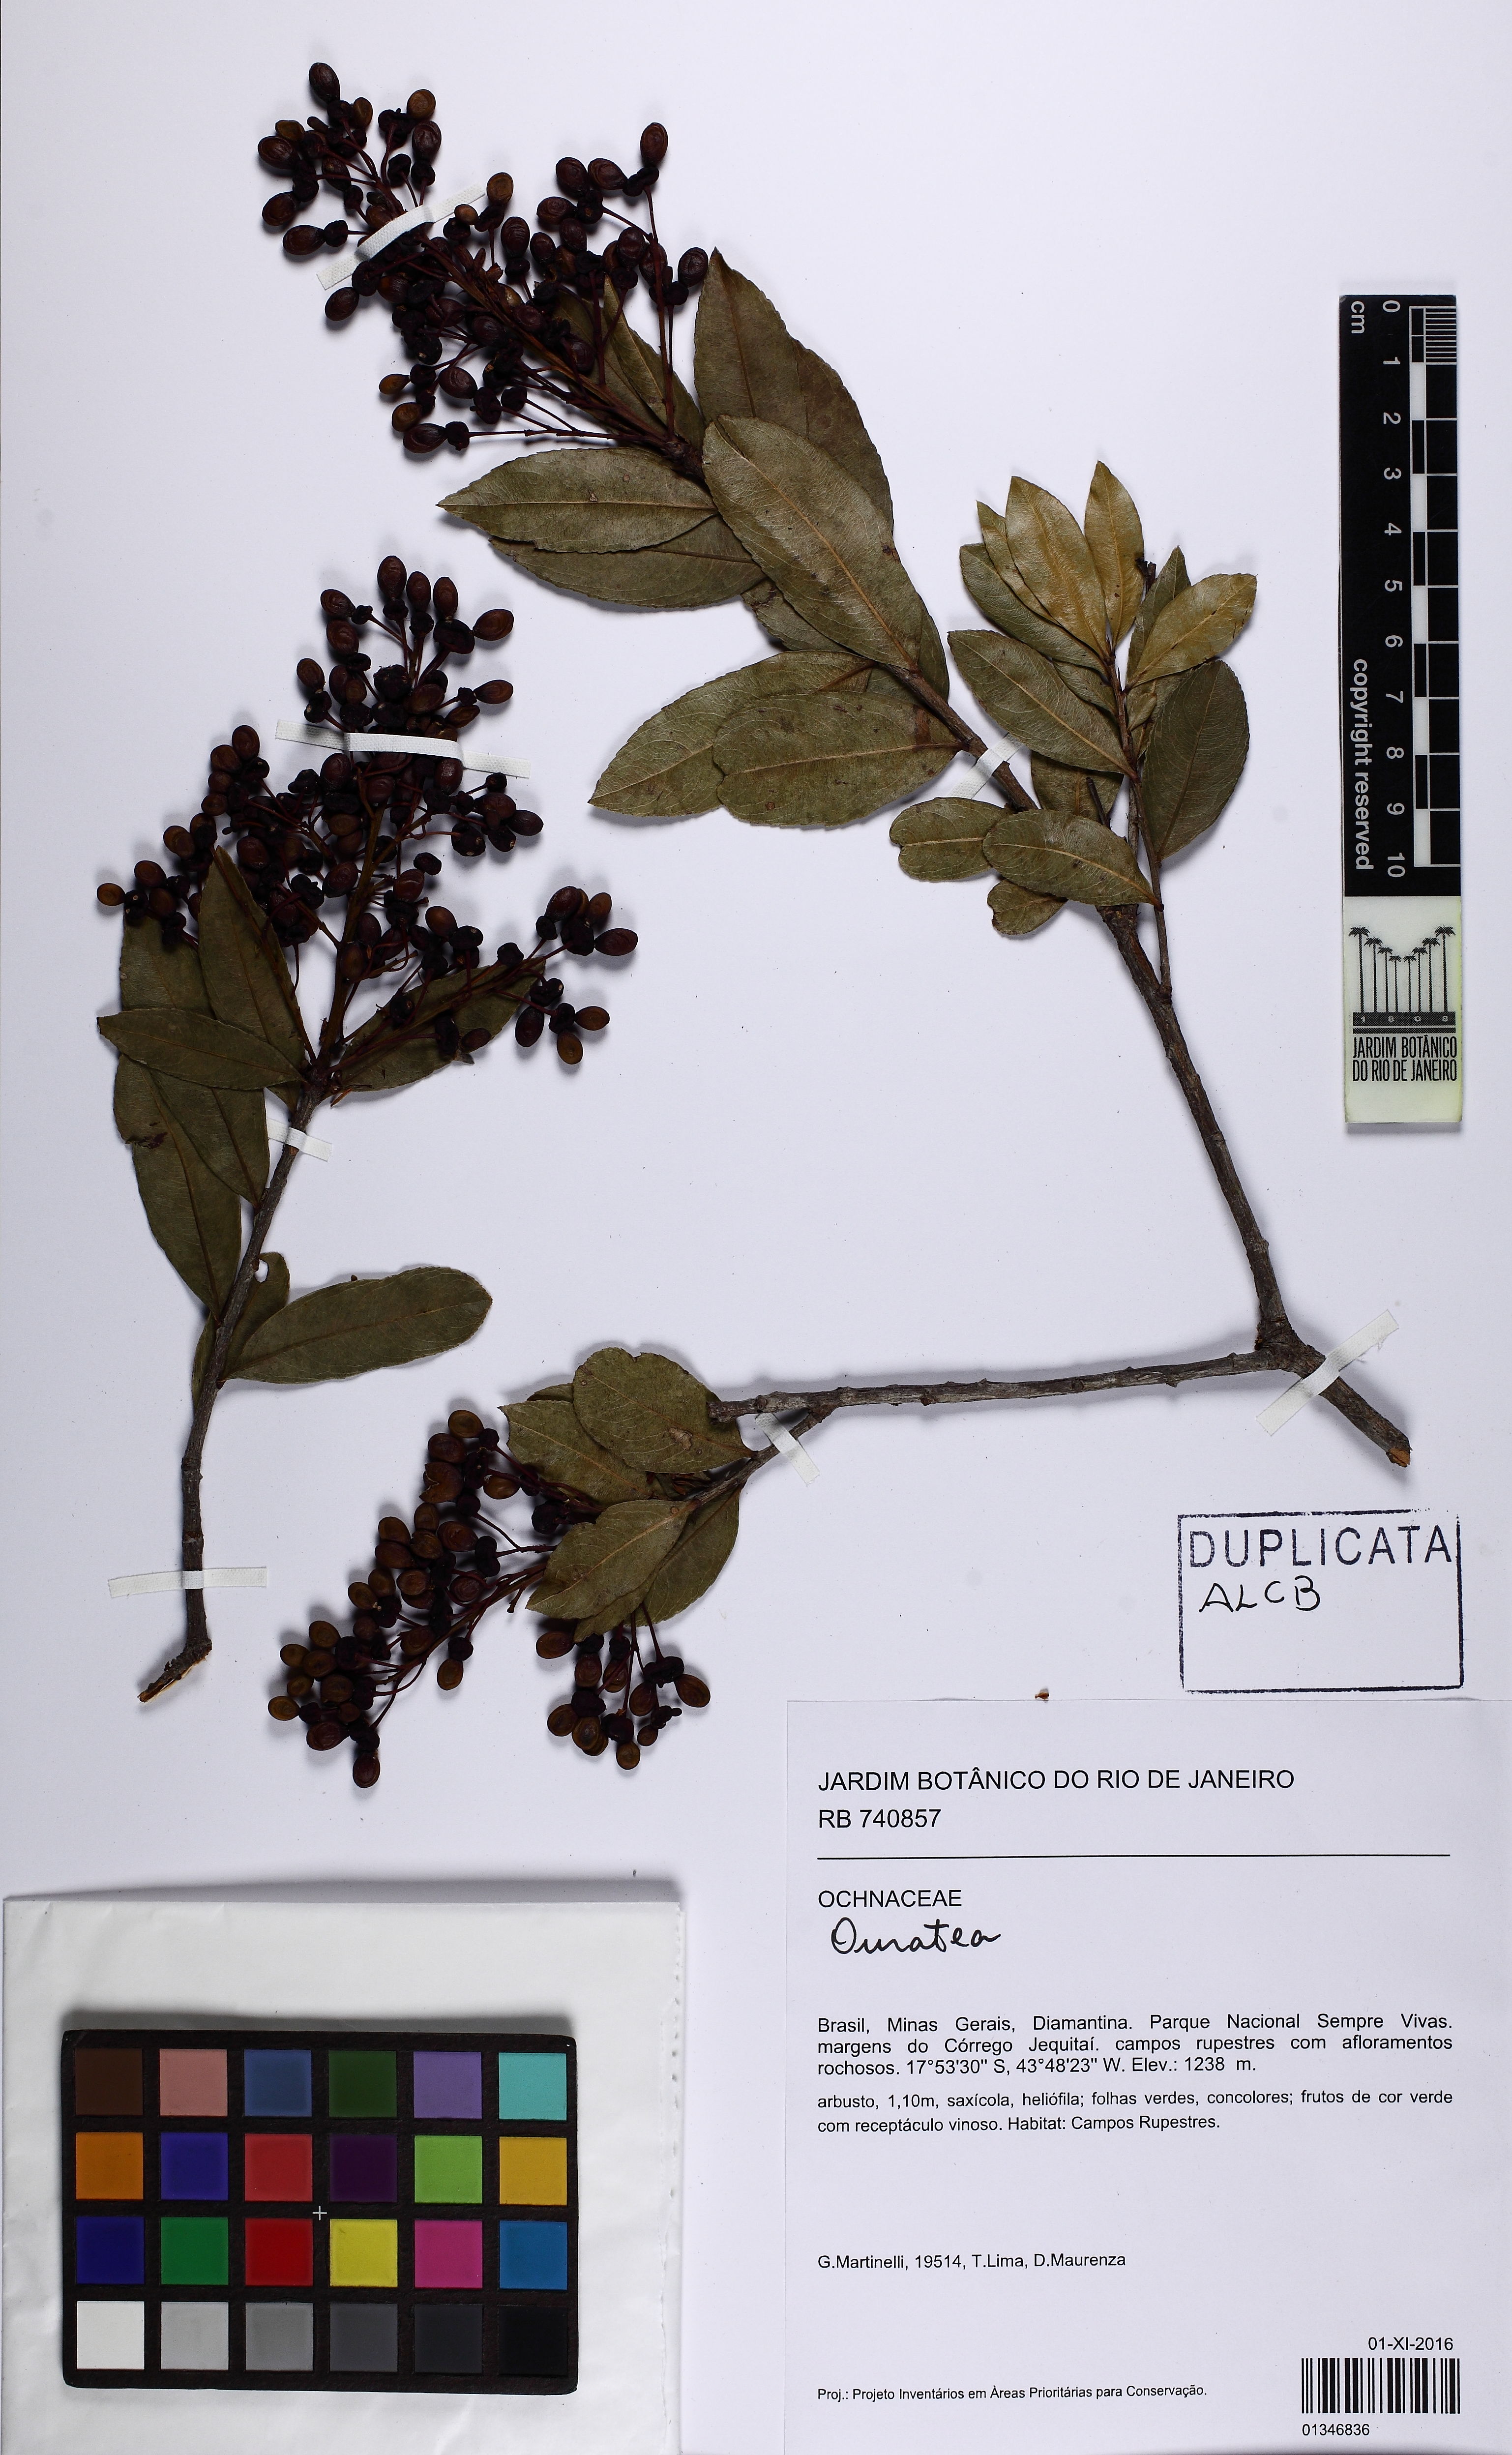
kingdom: Plantae
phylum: Tracheophyta
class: Magnoliopsida
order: Malpighiales
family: Ochnaceae
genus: Ouratea
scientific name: Ouratea
